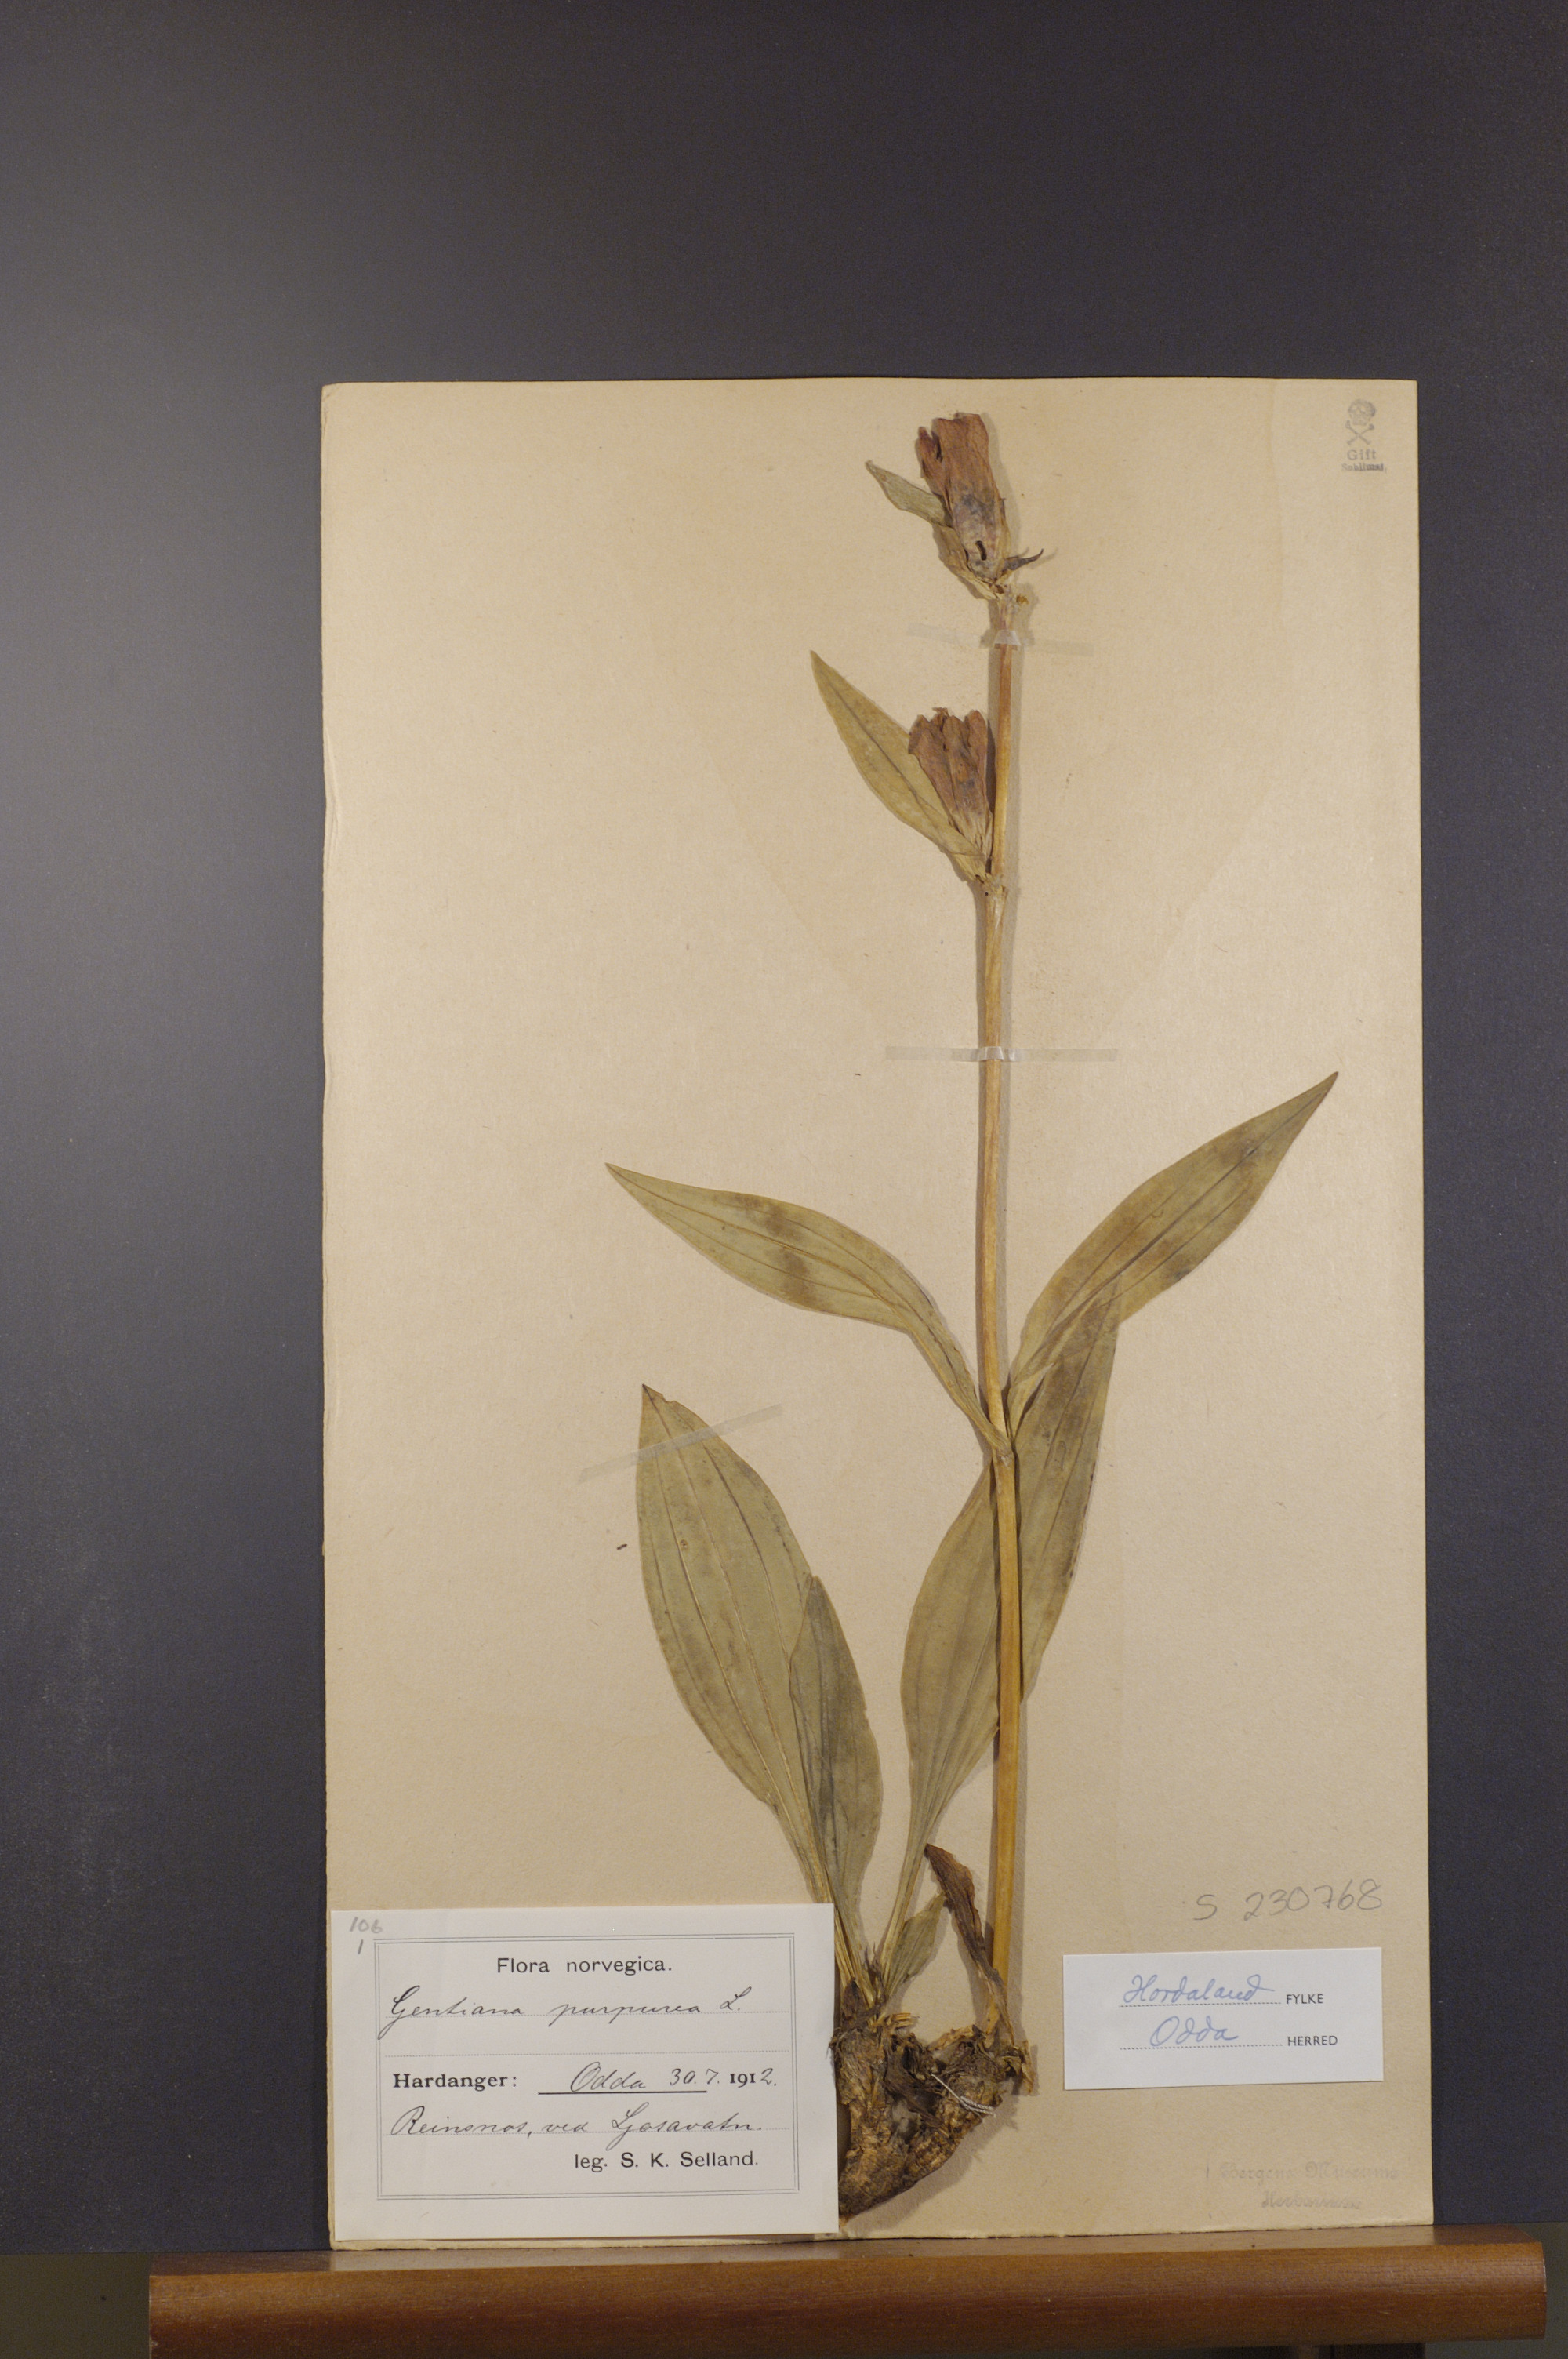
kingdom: Plantae
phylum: Tracheophyta
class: Magnoliopsida
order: Gentianales
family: Gentianaceae
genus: Gentiana
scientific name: Gentiana purpurea
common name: Purple gentian
